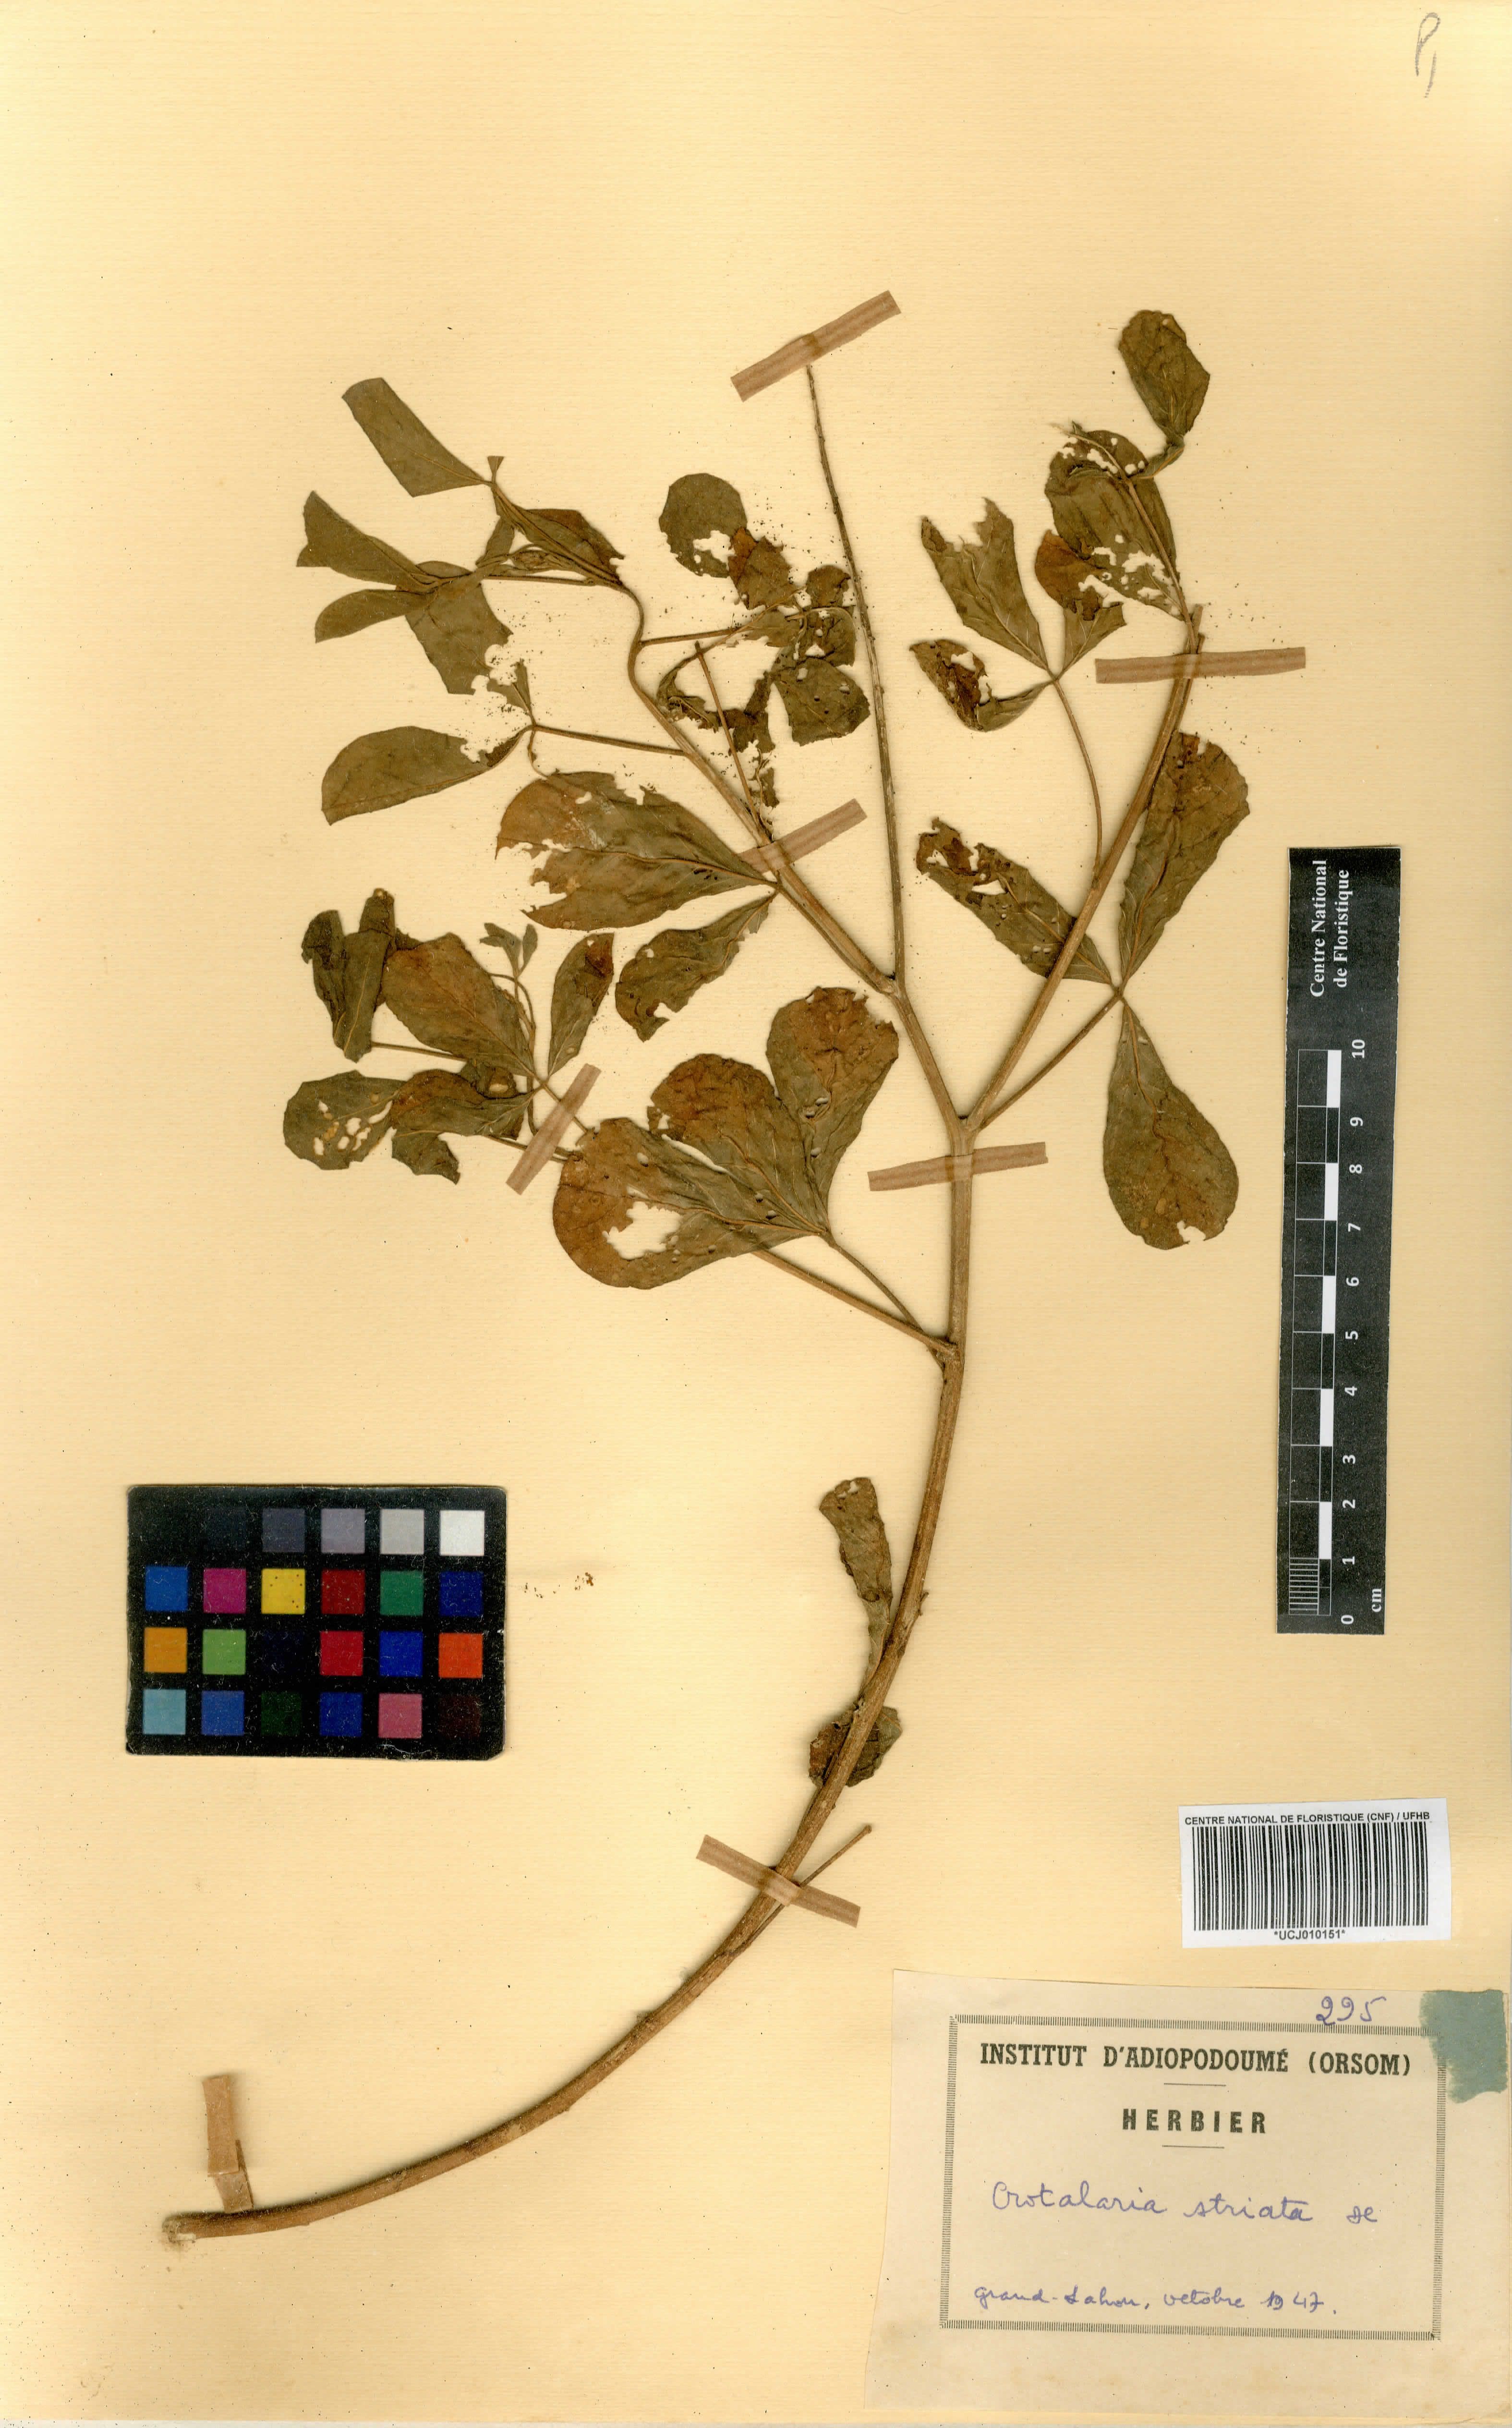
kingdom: Plantae
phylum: Tracheophyta
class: Magnoliopsida
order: Fabales
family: Fabaceae
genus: Crotalaria
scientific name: Crotalaria pallida
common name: Smooth rattlebox
